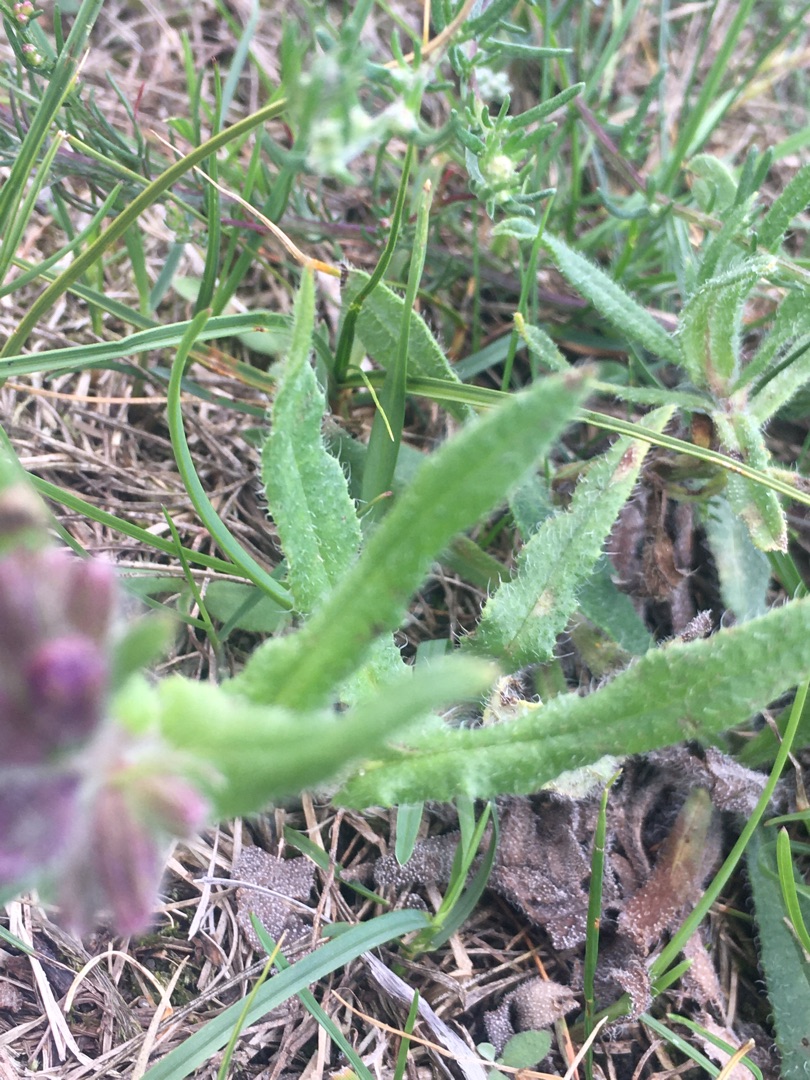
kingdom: Plantae
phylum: Tracheophyta
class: Magnoliopsida
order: Boraginales
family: Boraginaceae
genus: Anchusa
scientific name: Anchusa officinalis
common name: Læge-oksetunge
